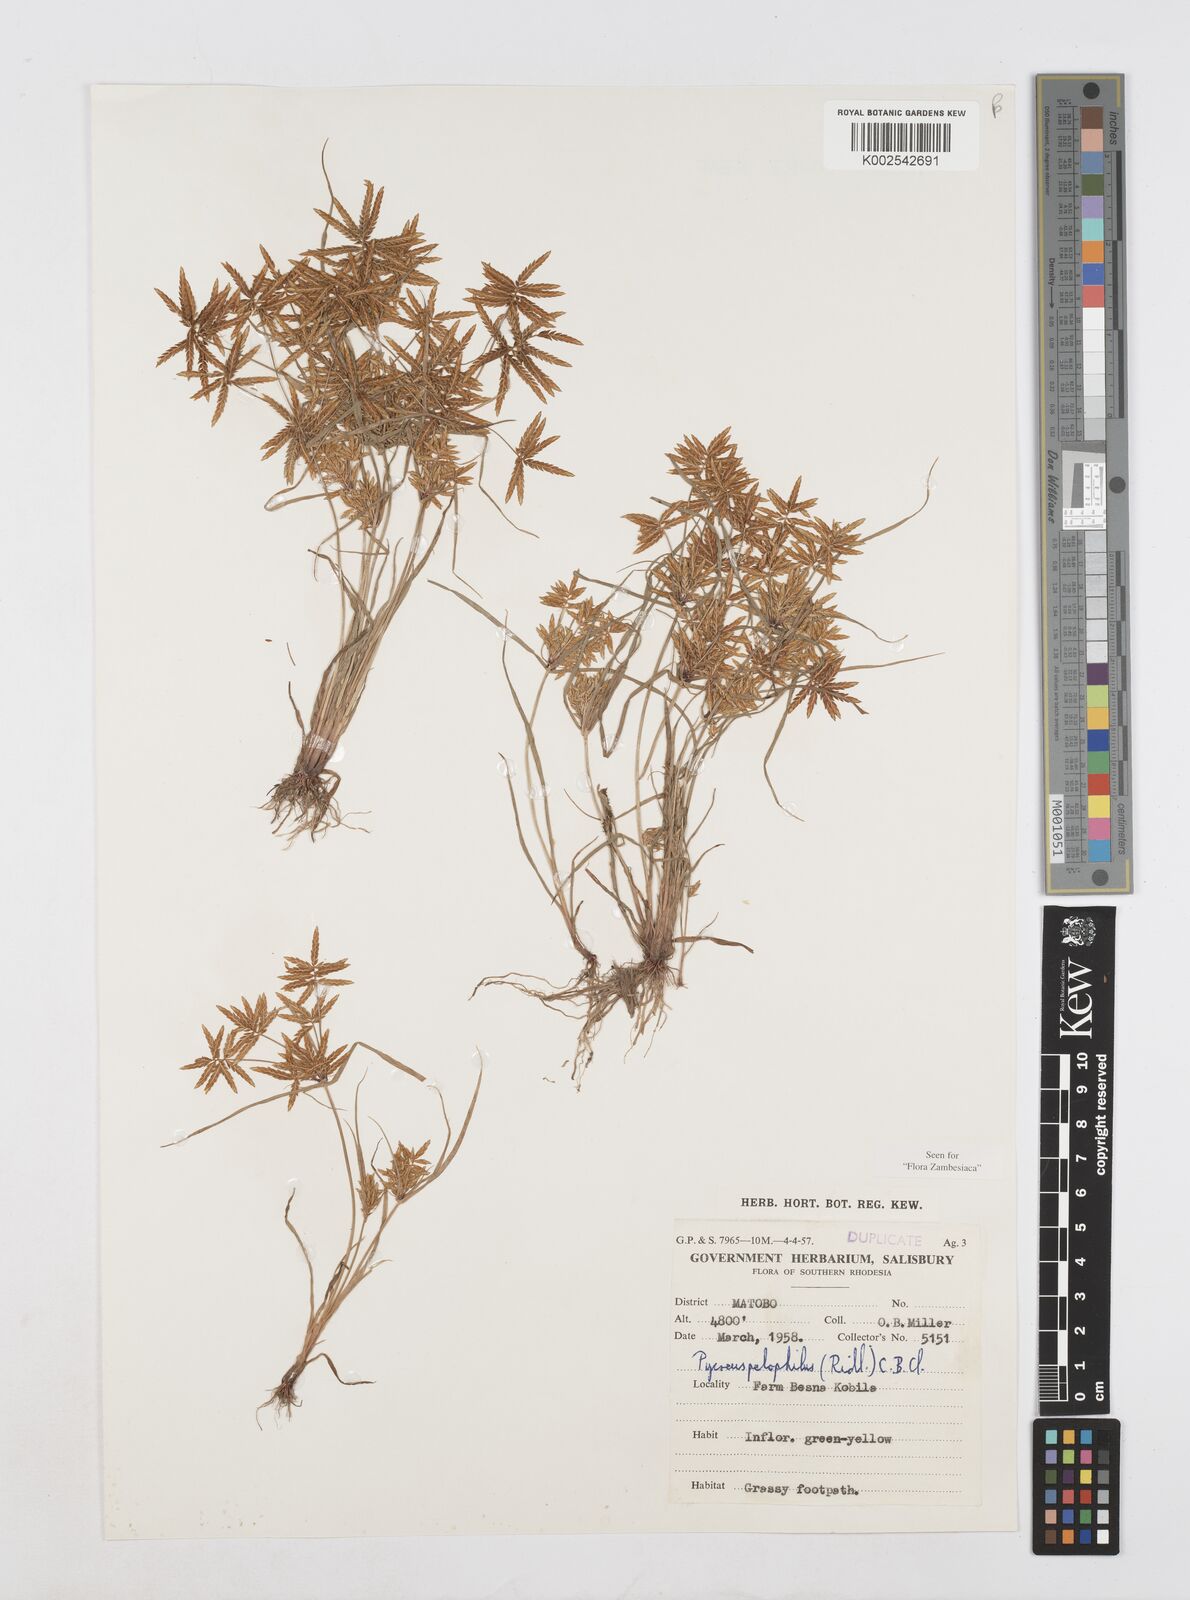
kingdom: Plantae
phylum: Tracheophyta
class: Liliopsida
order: Poales
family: Cyperaceae
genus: Cyperus
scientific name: Cyperus pelophilus
